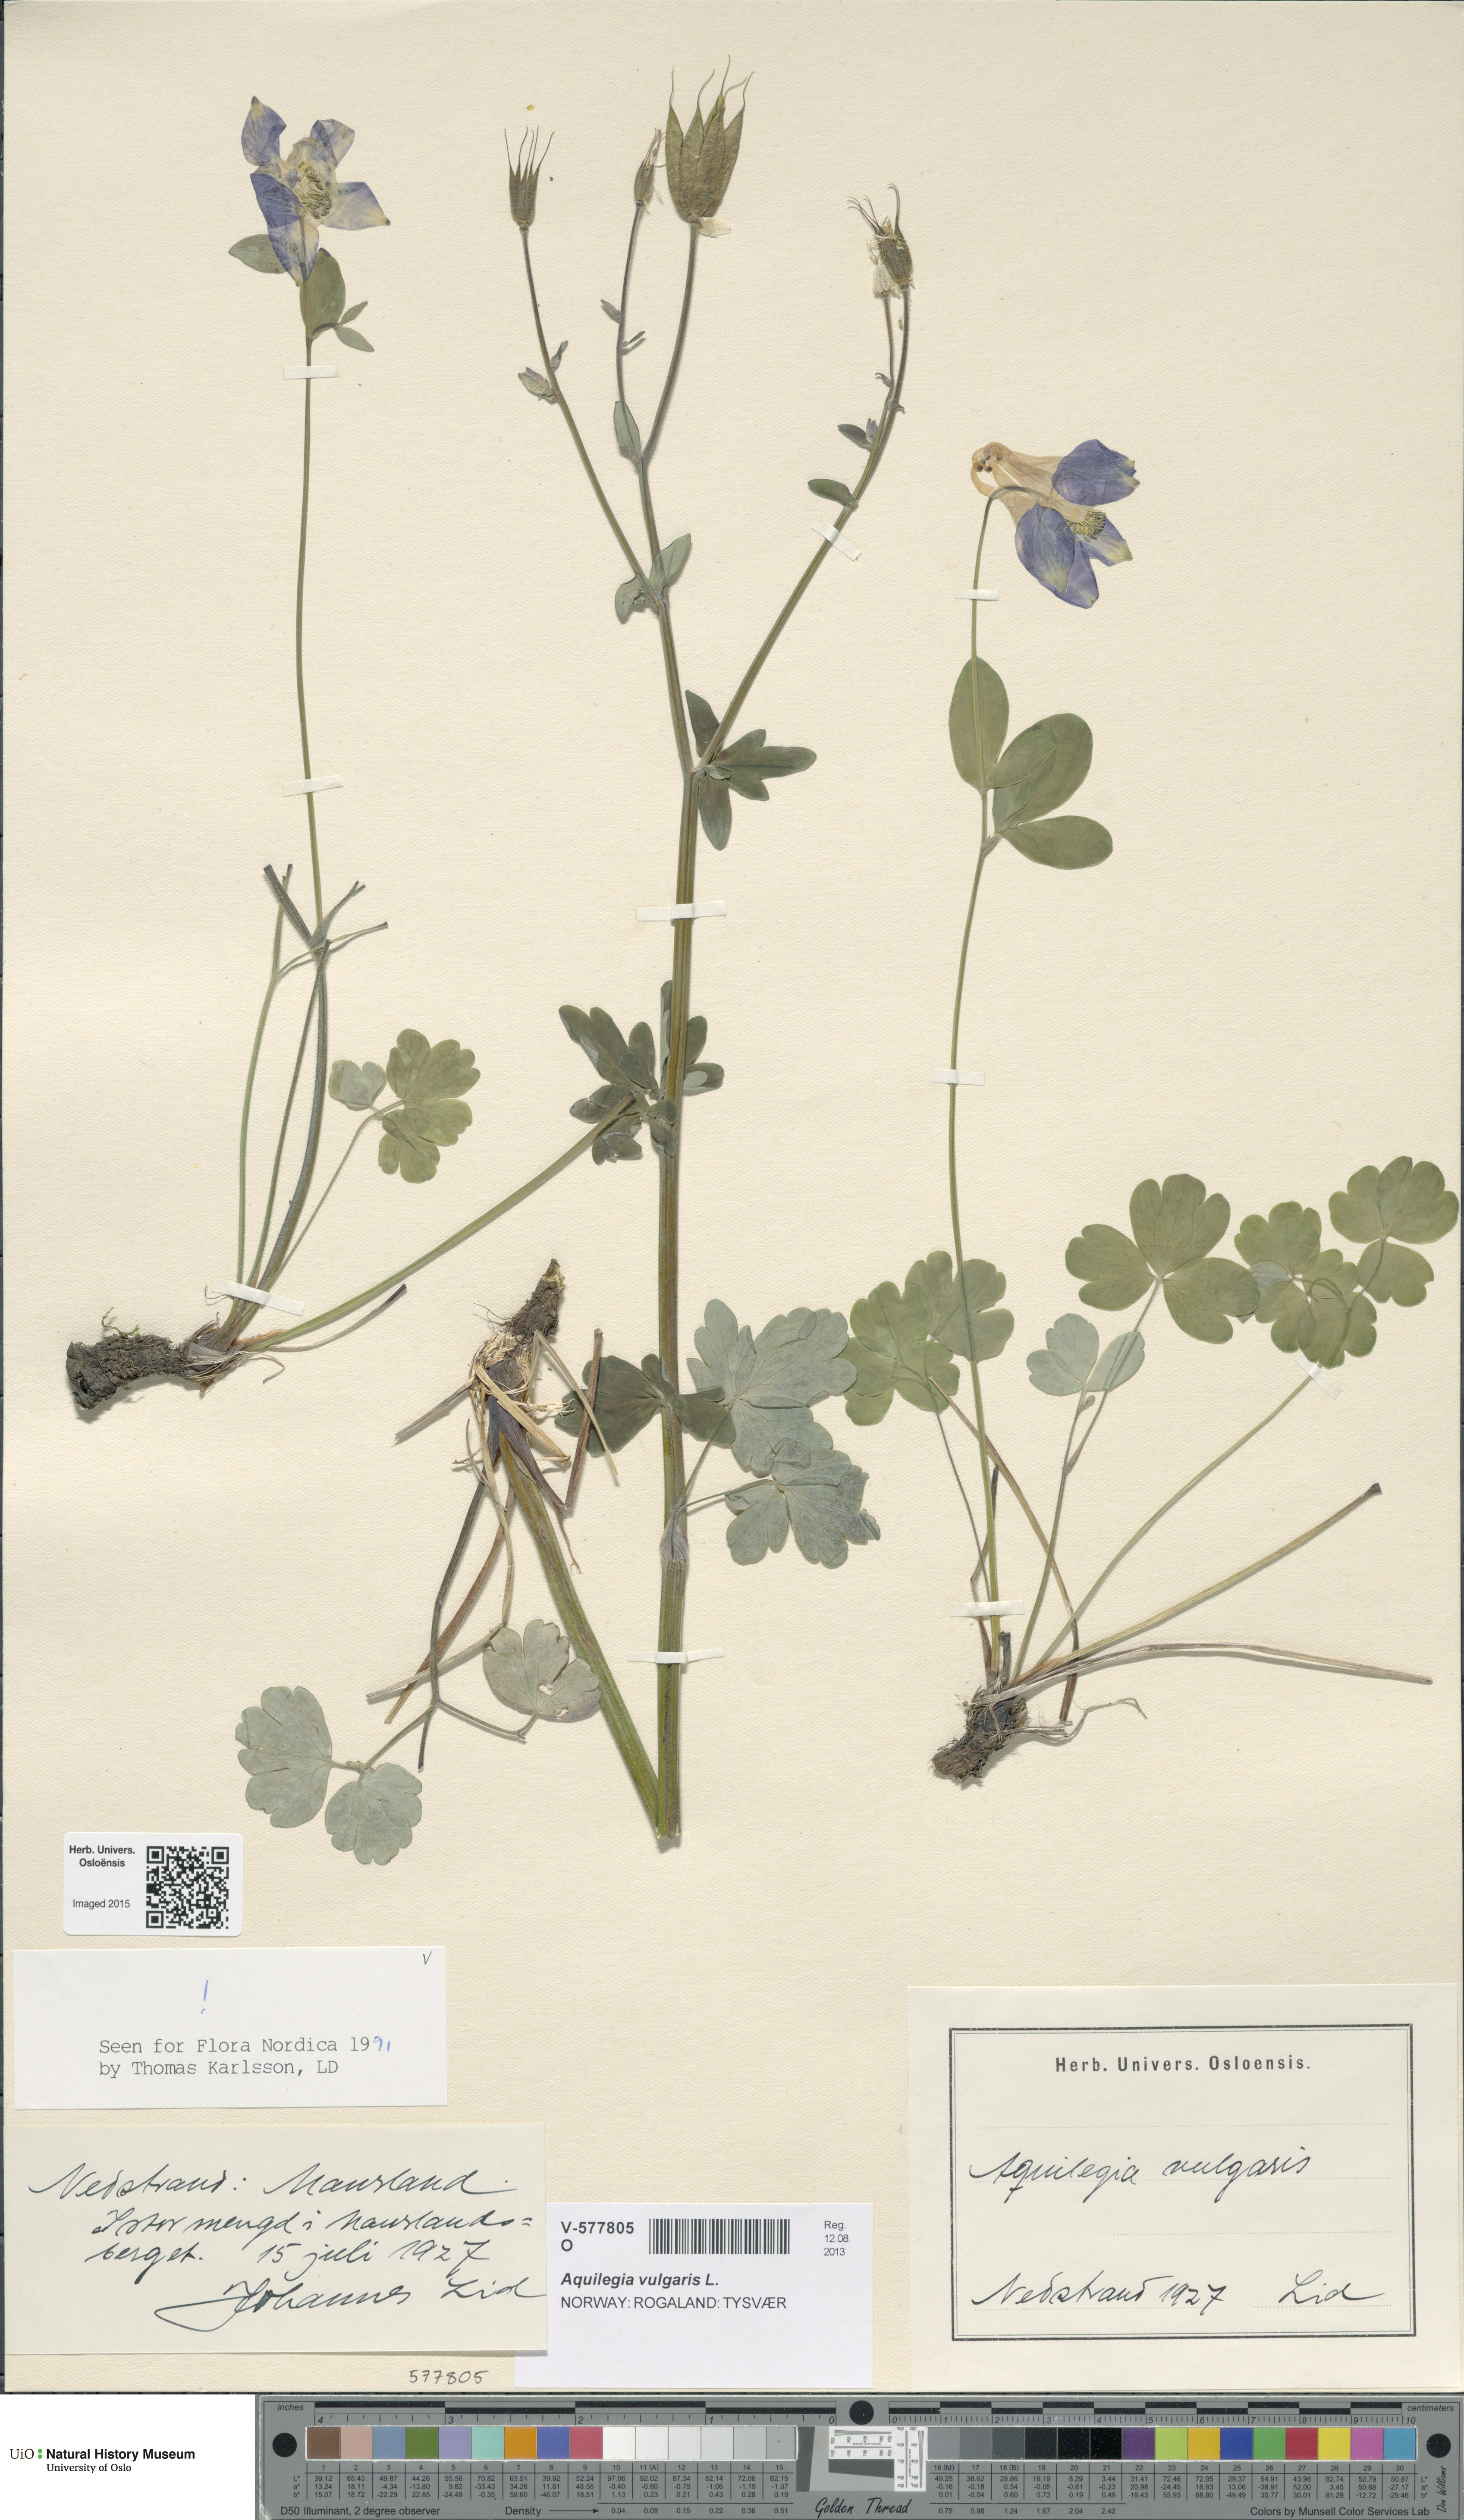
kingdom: Plantae
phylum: Tracheophyta
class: Magnoliopsida
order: Ranunculales
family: Ranunculaceae
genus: Aquilegia
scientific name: Aquilegia vulgaris
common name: Columbine
